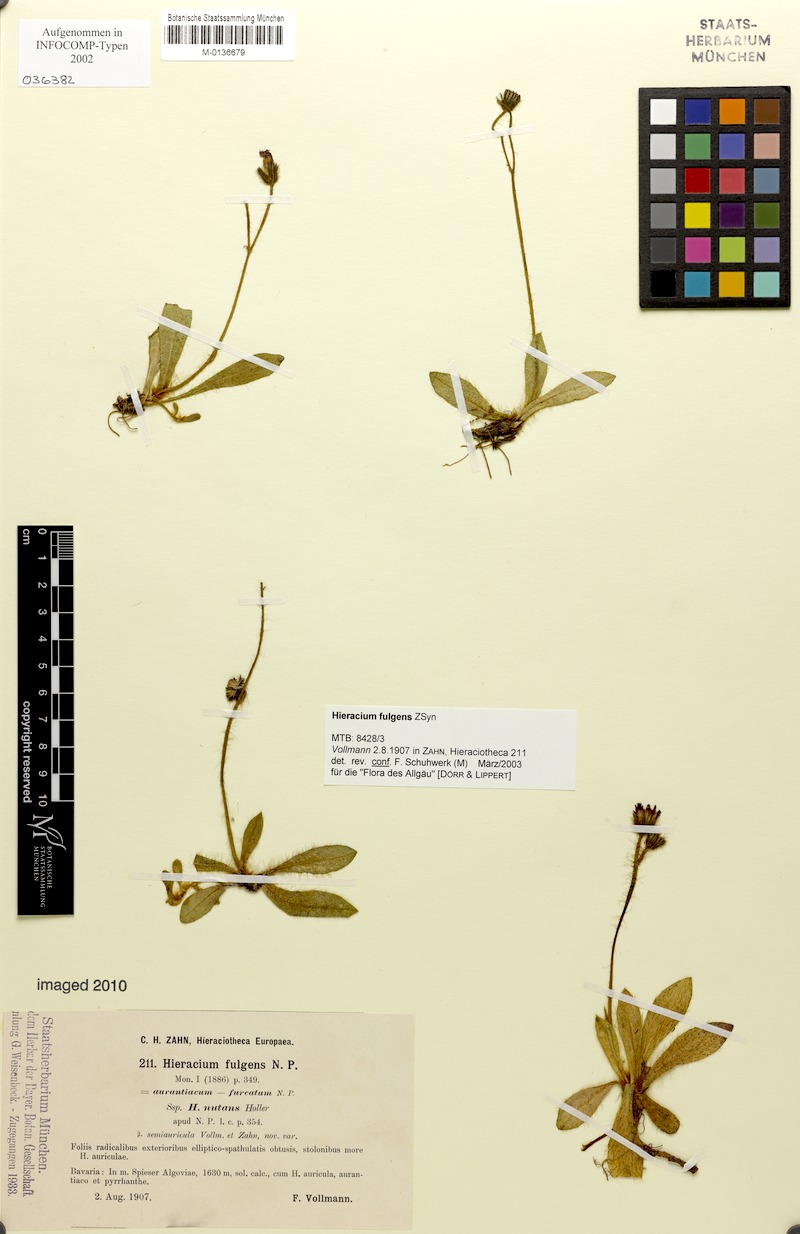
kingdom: Plantae
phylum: Tracheophyta
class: Magnoliopsida
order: Asterales
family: Asteraceae
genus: Pilosella
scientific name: Pilosella notha
